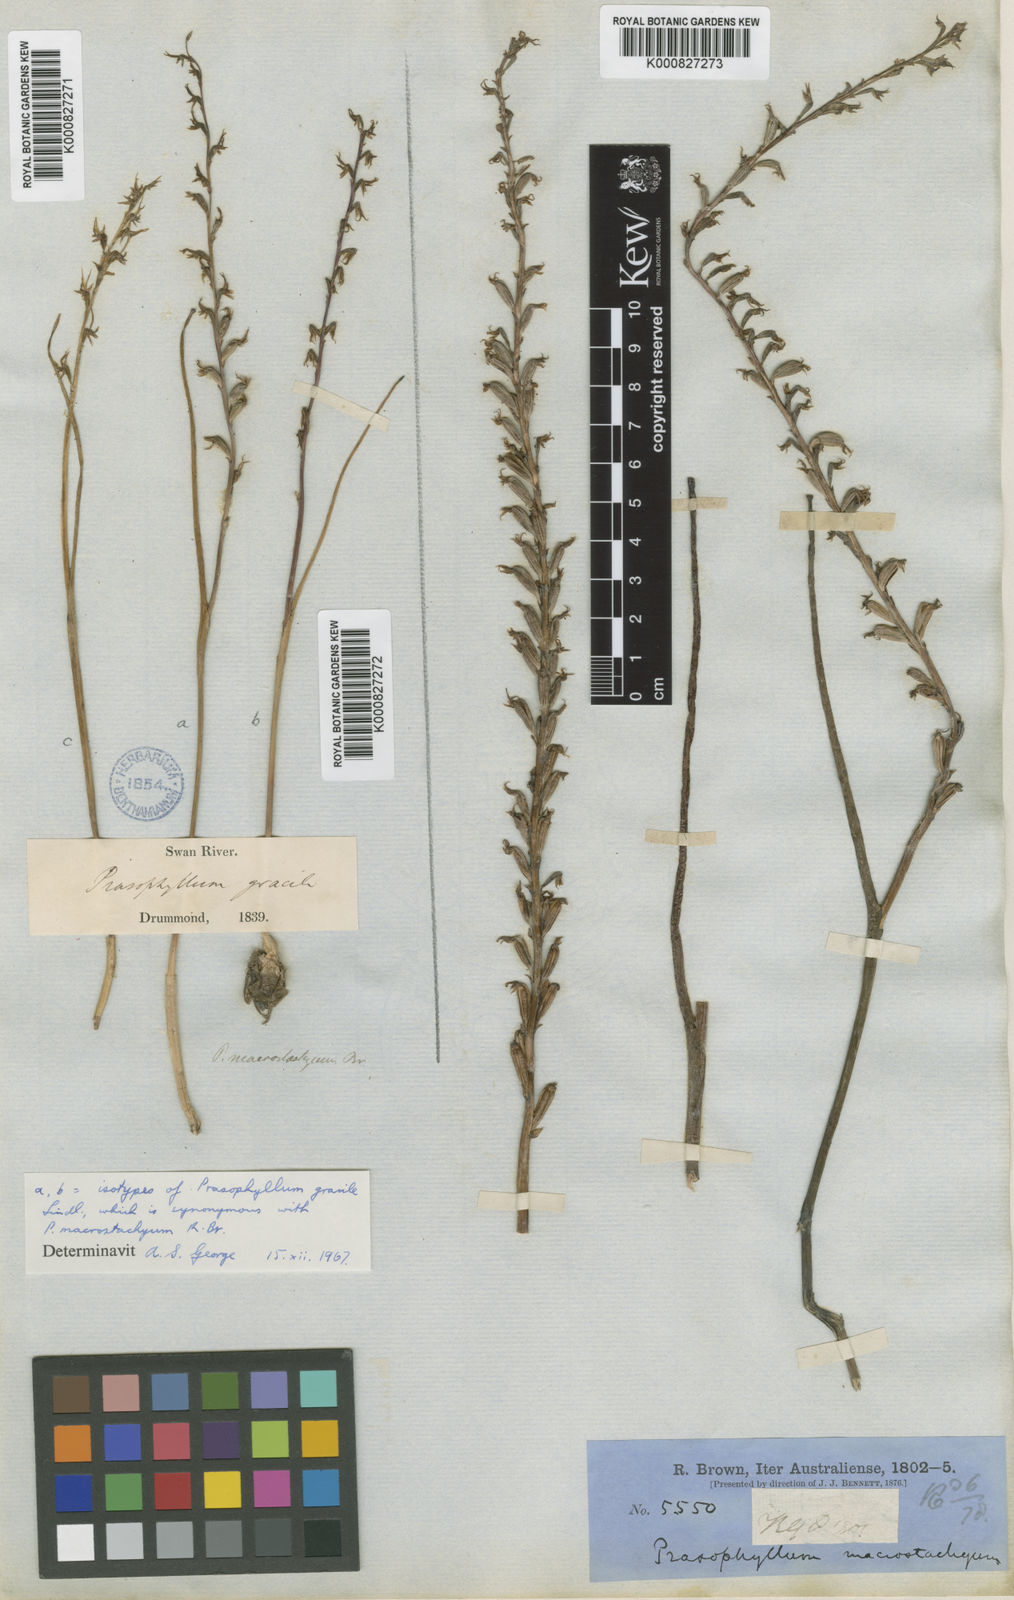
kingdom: Plantae
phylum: Tracheophyta
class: Liliopsida
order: Asparagales
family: Orchidaceae
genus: Prasophyllum
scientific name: Prasophyllum macrostachyum
